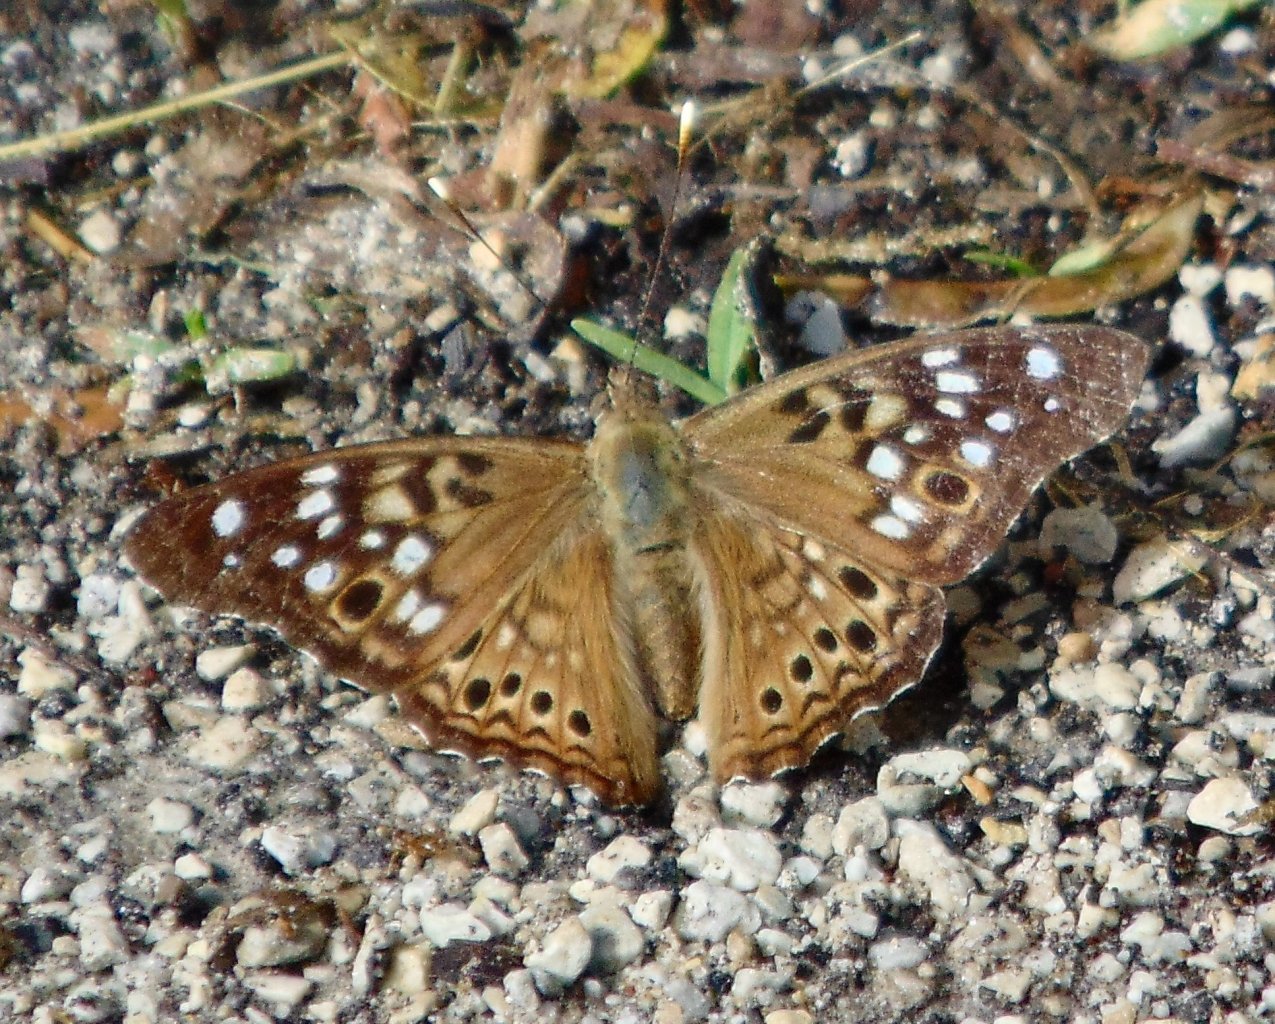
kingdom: Animalia
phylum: Arthropoda
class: Insecta
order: Lepidoptera
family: Nymphalidae
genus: Asterocampa
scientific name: Asterocampa celtis
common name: Hackberry Emperor
